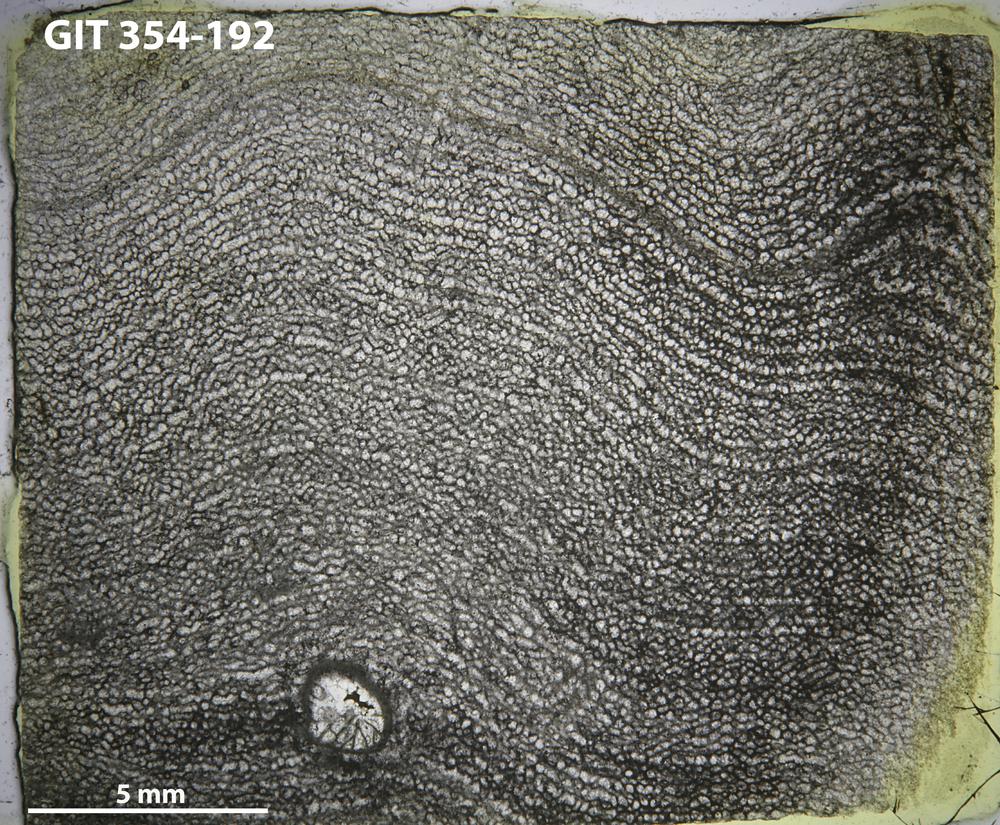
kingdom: Animalia
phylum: Porifera
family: Clathrodictyidae
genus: Clathrodictyon
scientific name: Clathrodictyon boreale
